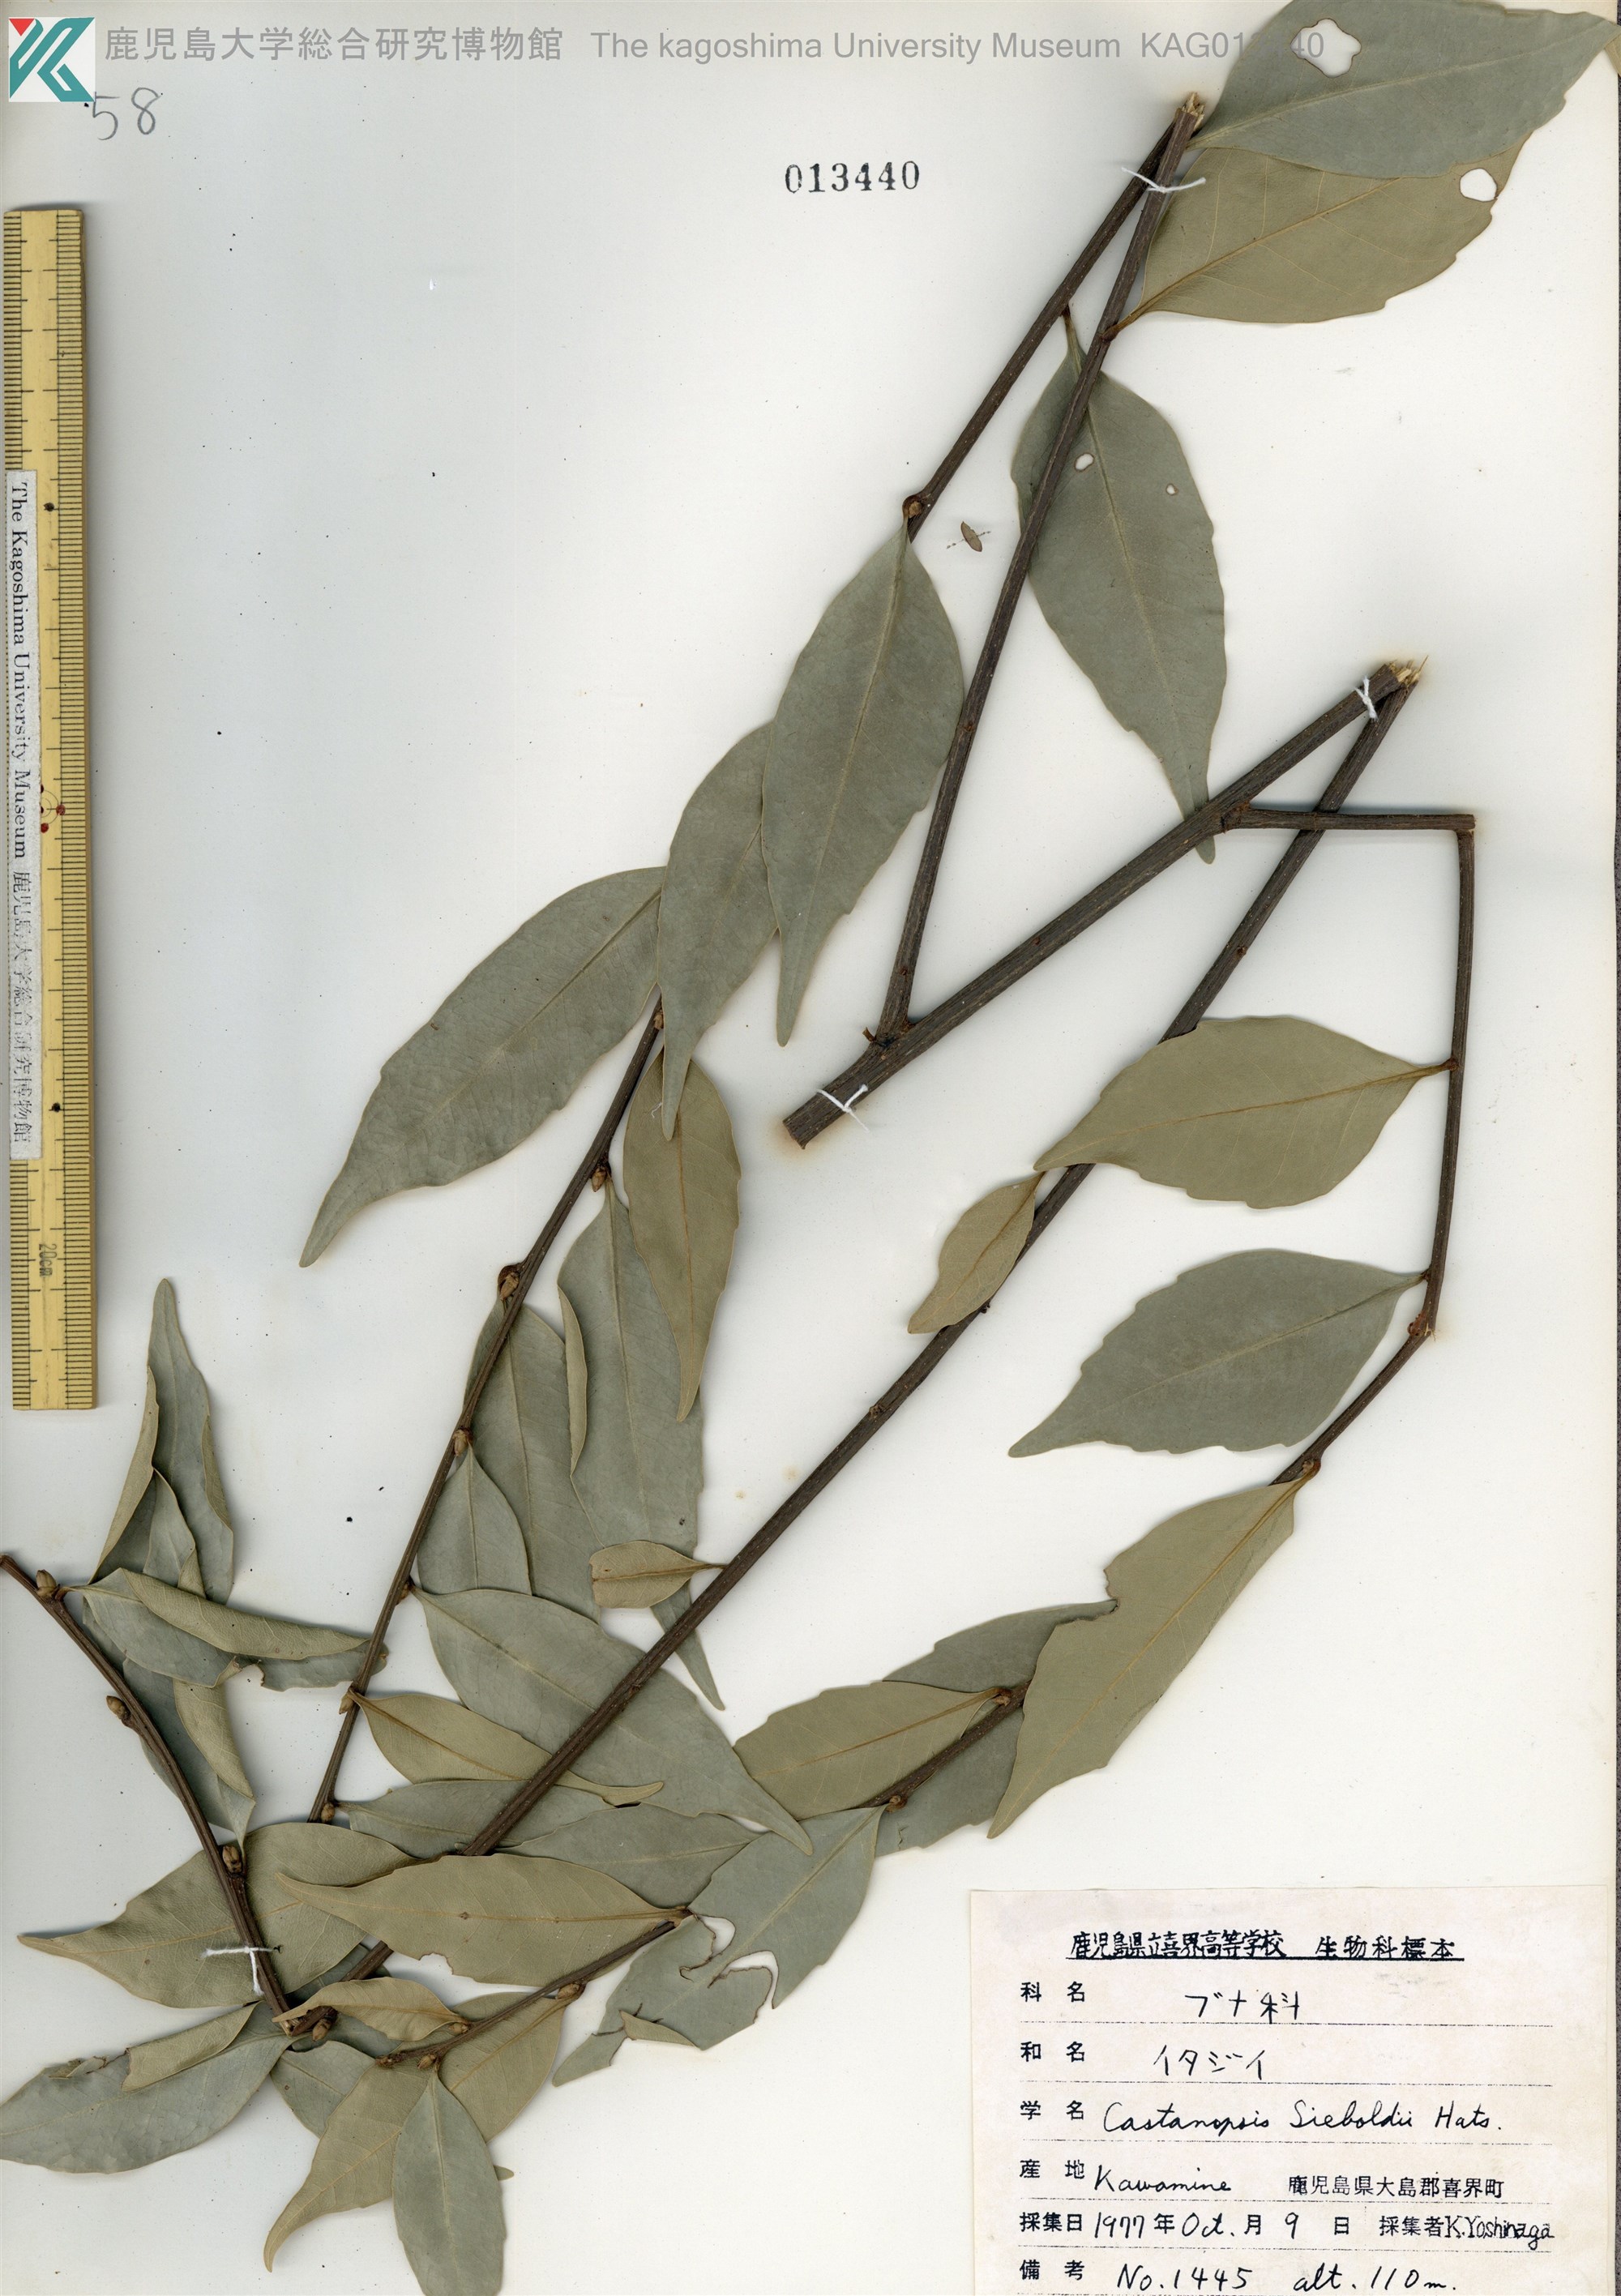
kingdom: Plantae
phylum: Tracheophyta
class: Magnoliopsida
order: Fagales
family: Fagaceae
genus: Castanopsis
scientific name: Castanopsis sieboldii
